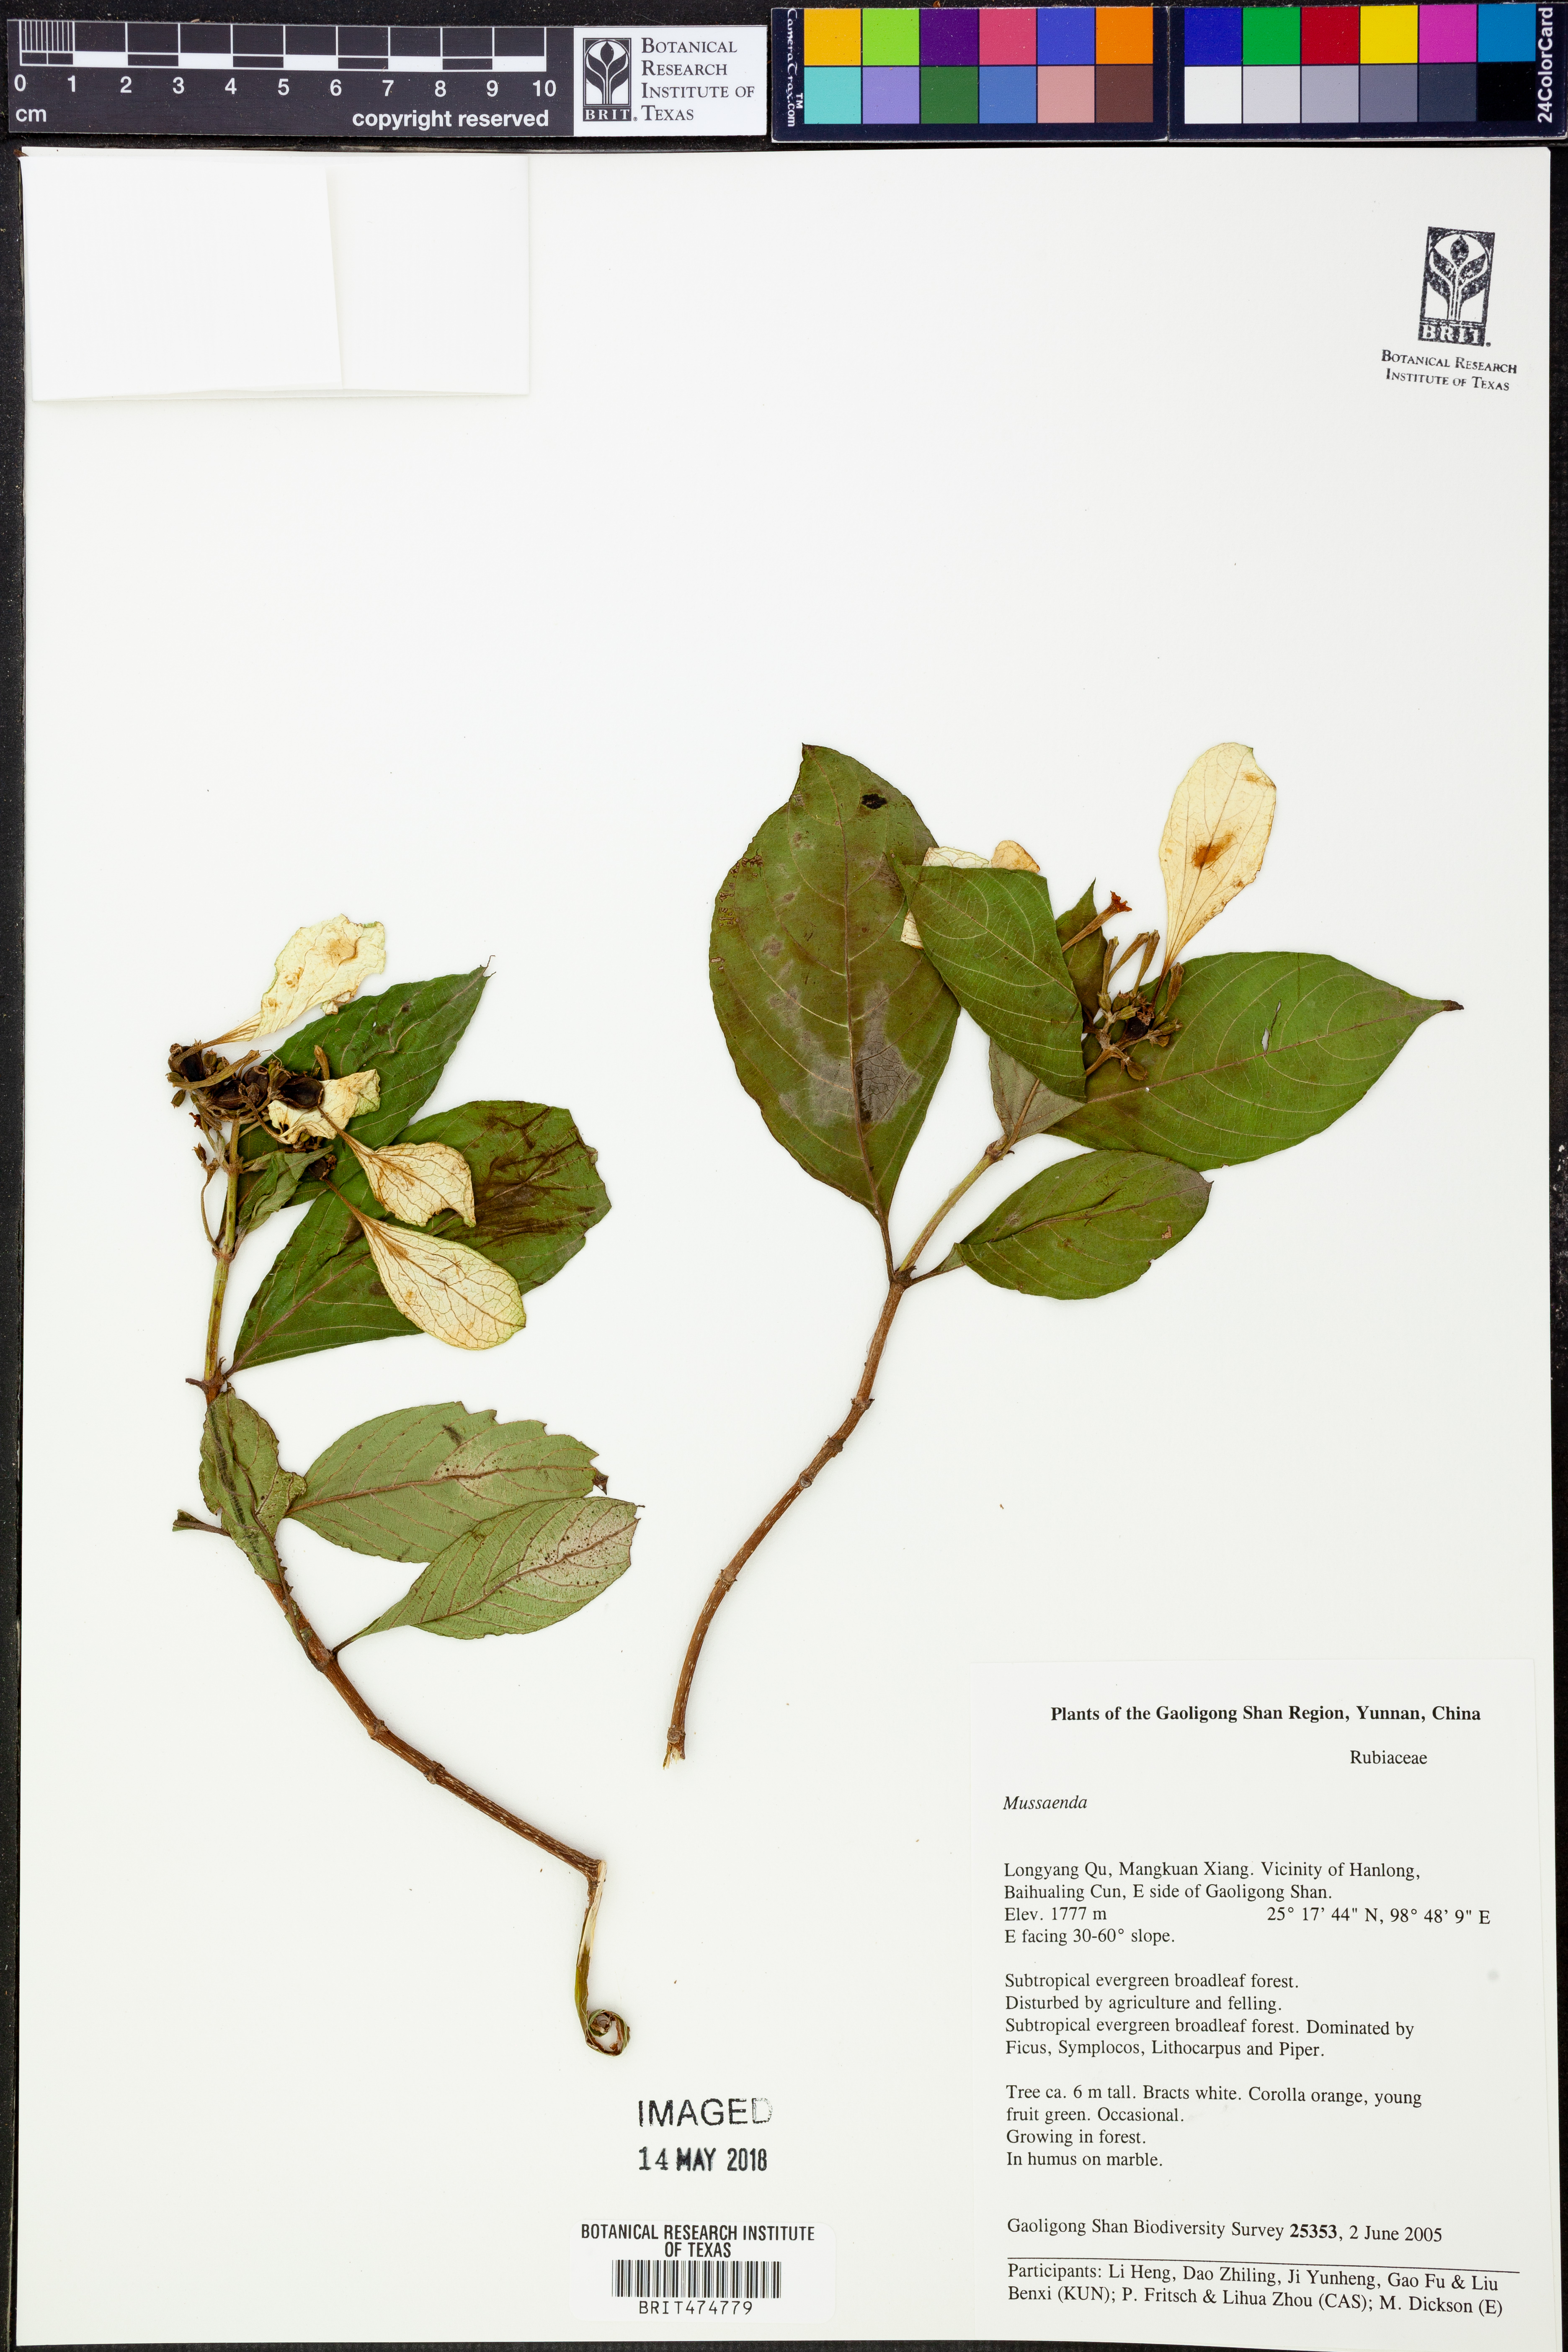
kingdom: Plantae
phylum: Tracheophyta
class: Magnoliopsida
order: Gentianales
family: Rubiaceae
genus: Mussaenda
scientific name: Mussaenda
